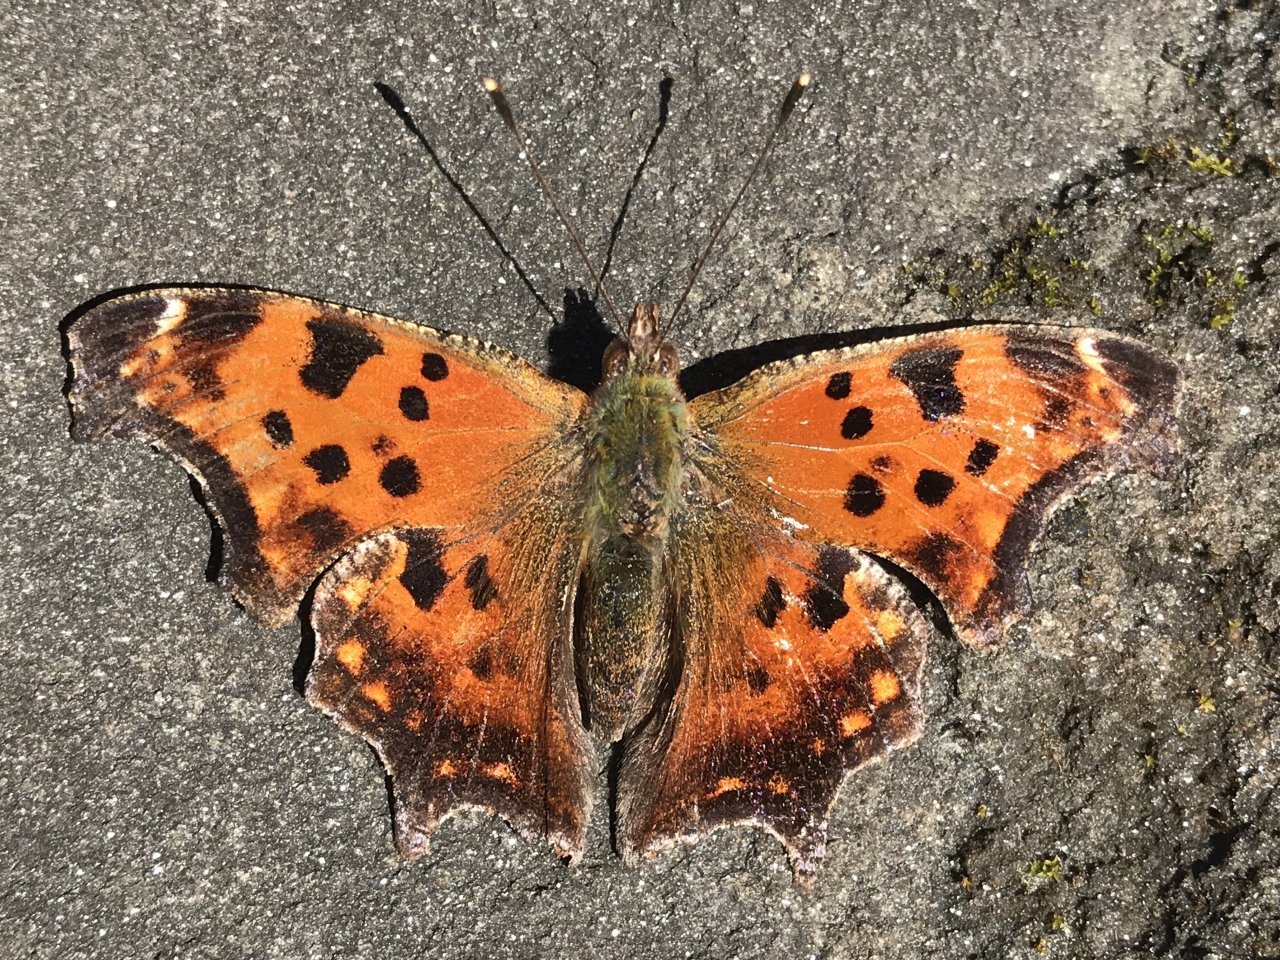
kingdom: Animalia
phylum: Arthropoda
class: Insecta
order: Lepidoptera
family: Nymphalidae
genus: Polygonia
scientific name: Polygonia comma
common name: Eastern Comma
